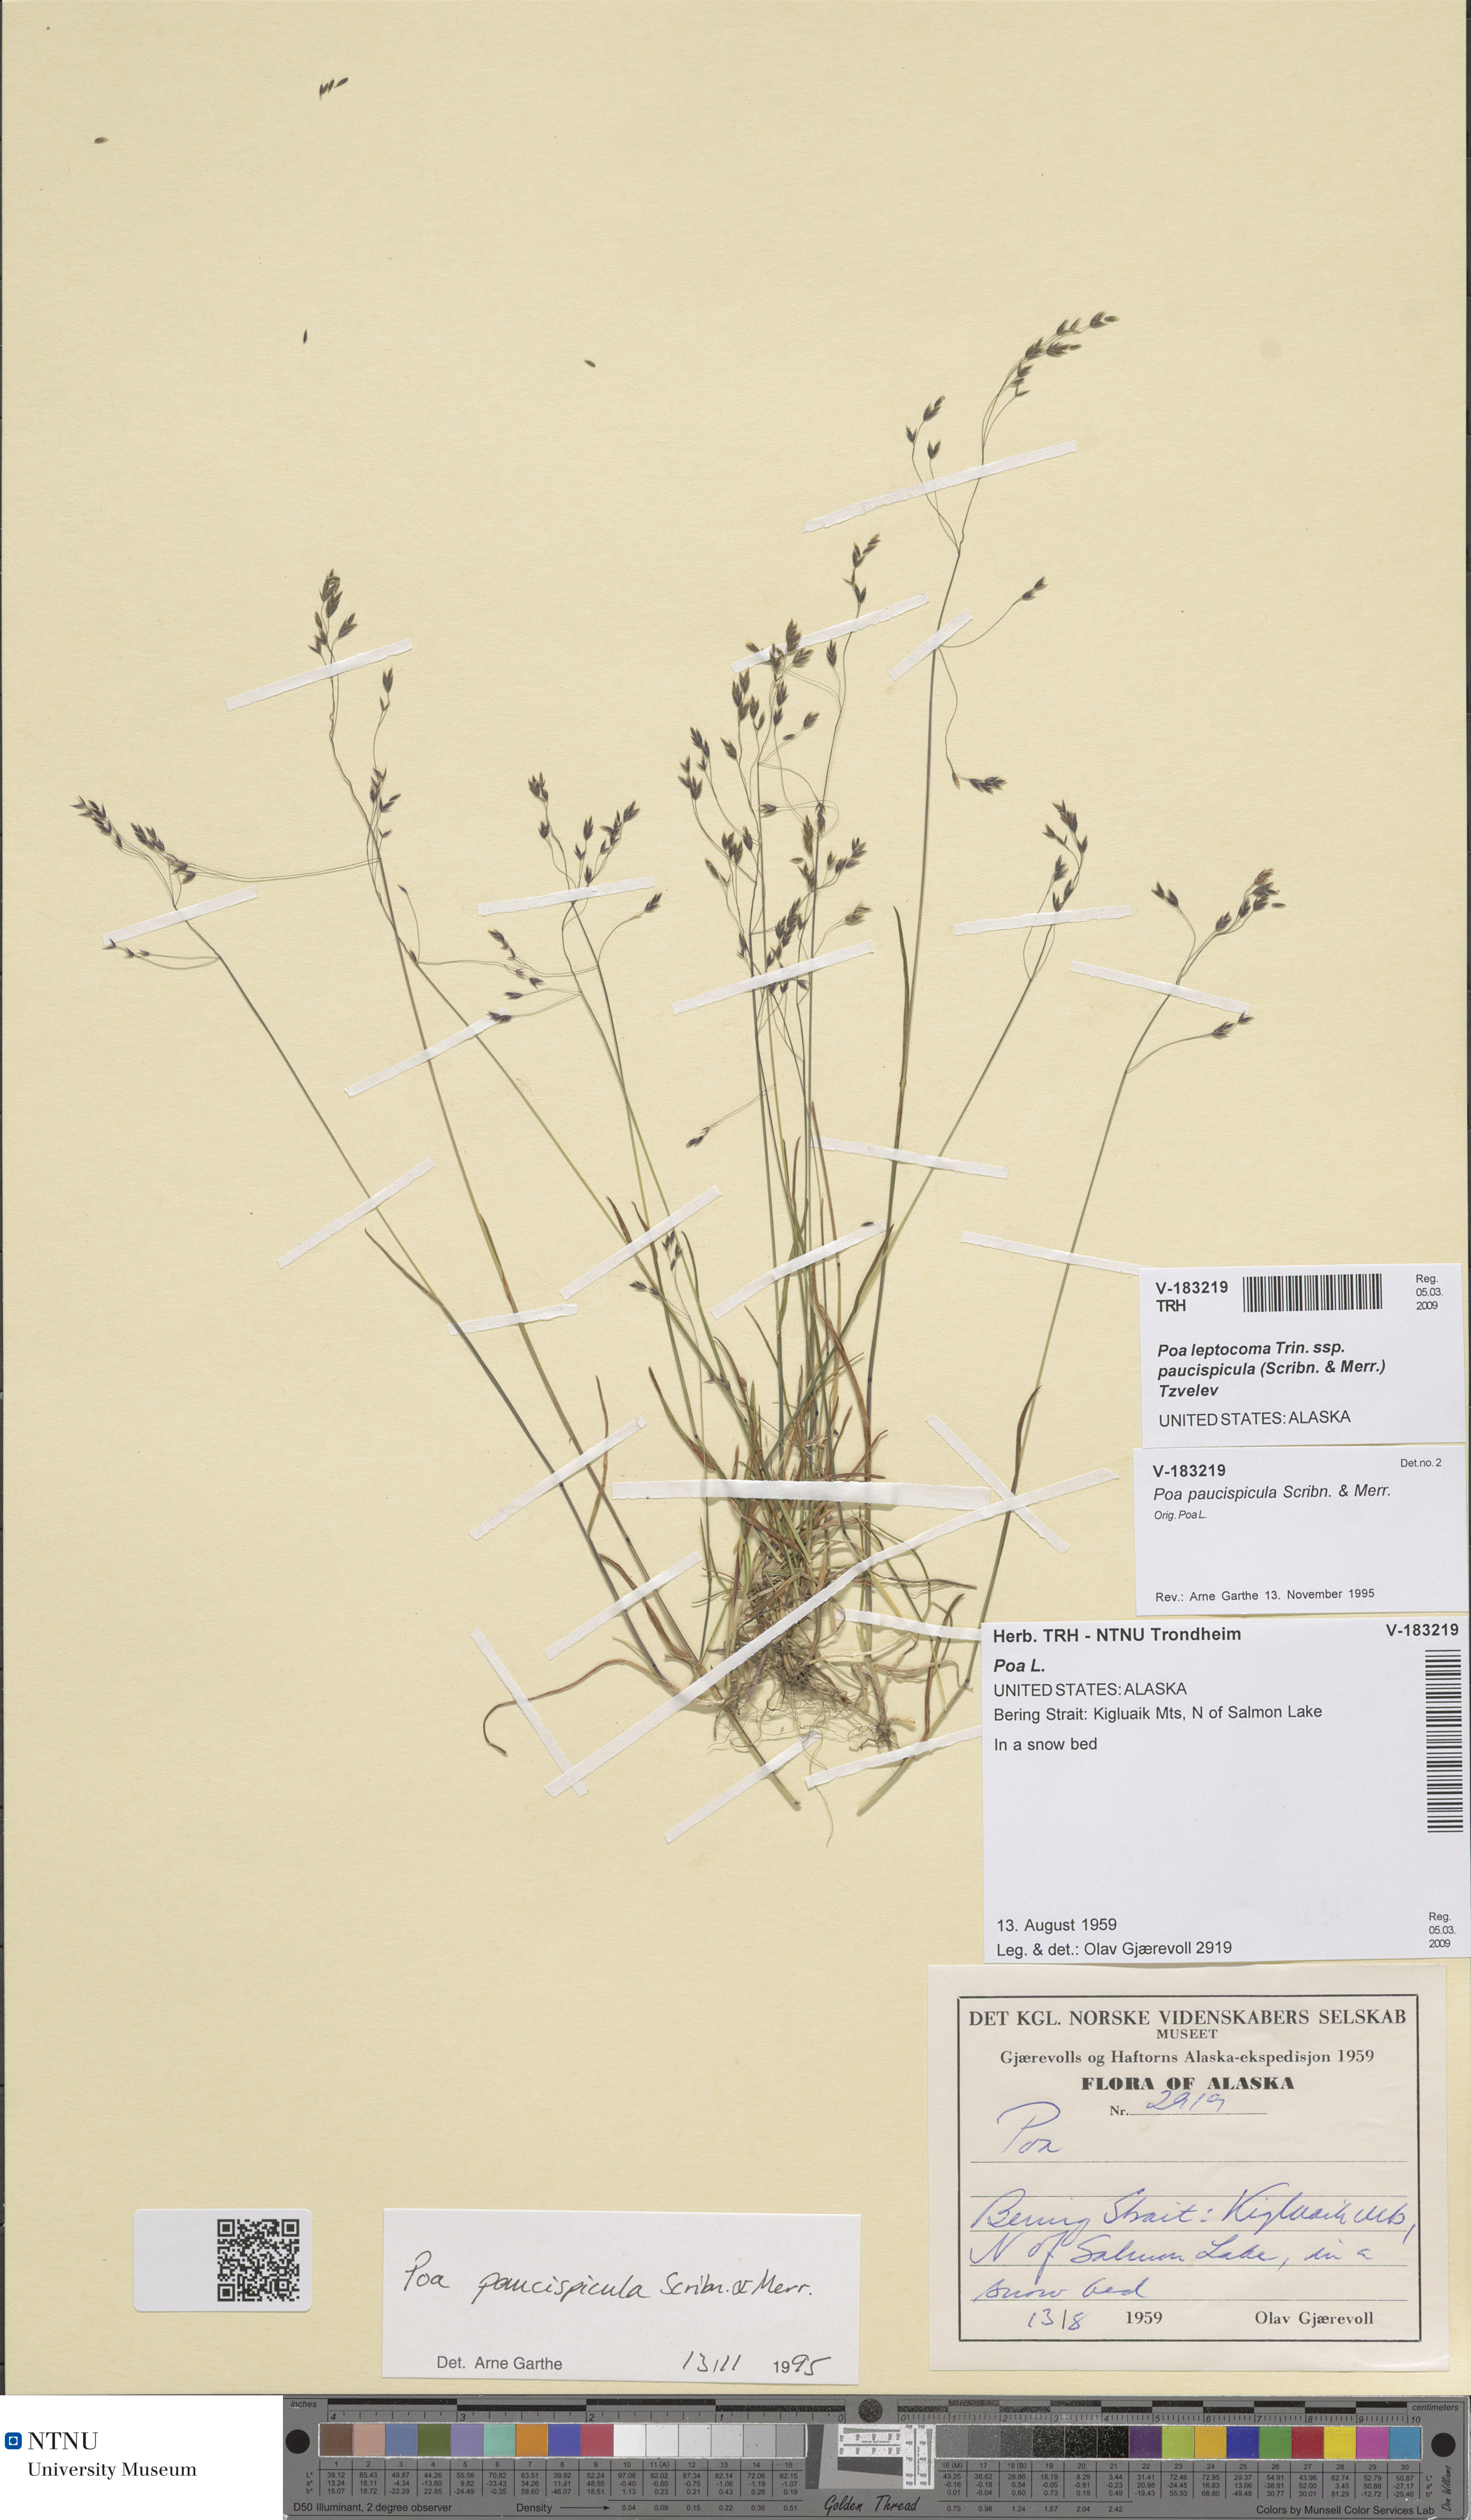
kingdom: Plantae
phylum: Tracheophyta
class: Liliopsida
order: Poales
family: Poaceae
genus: Poa
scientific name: Poa paucispicula
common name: Alaska bluegrass
